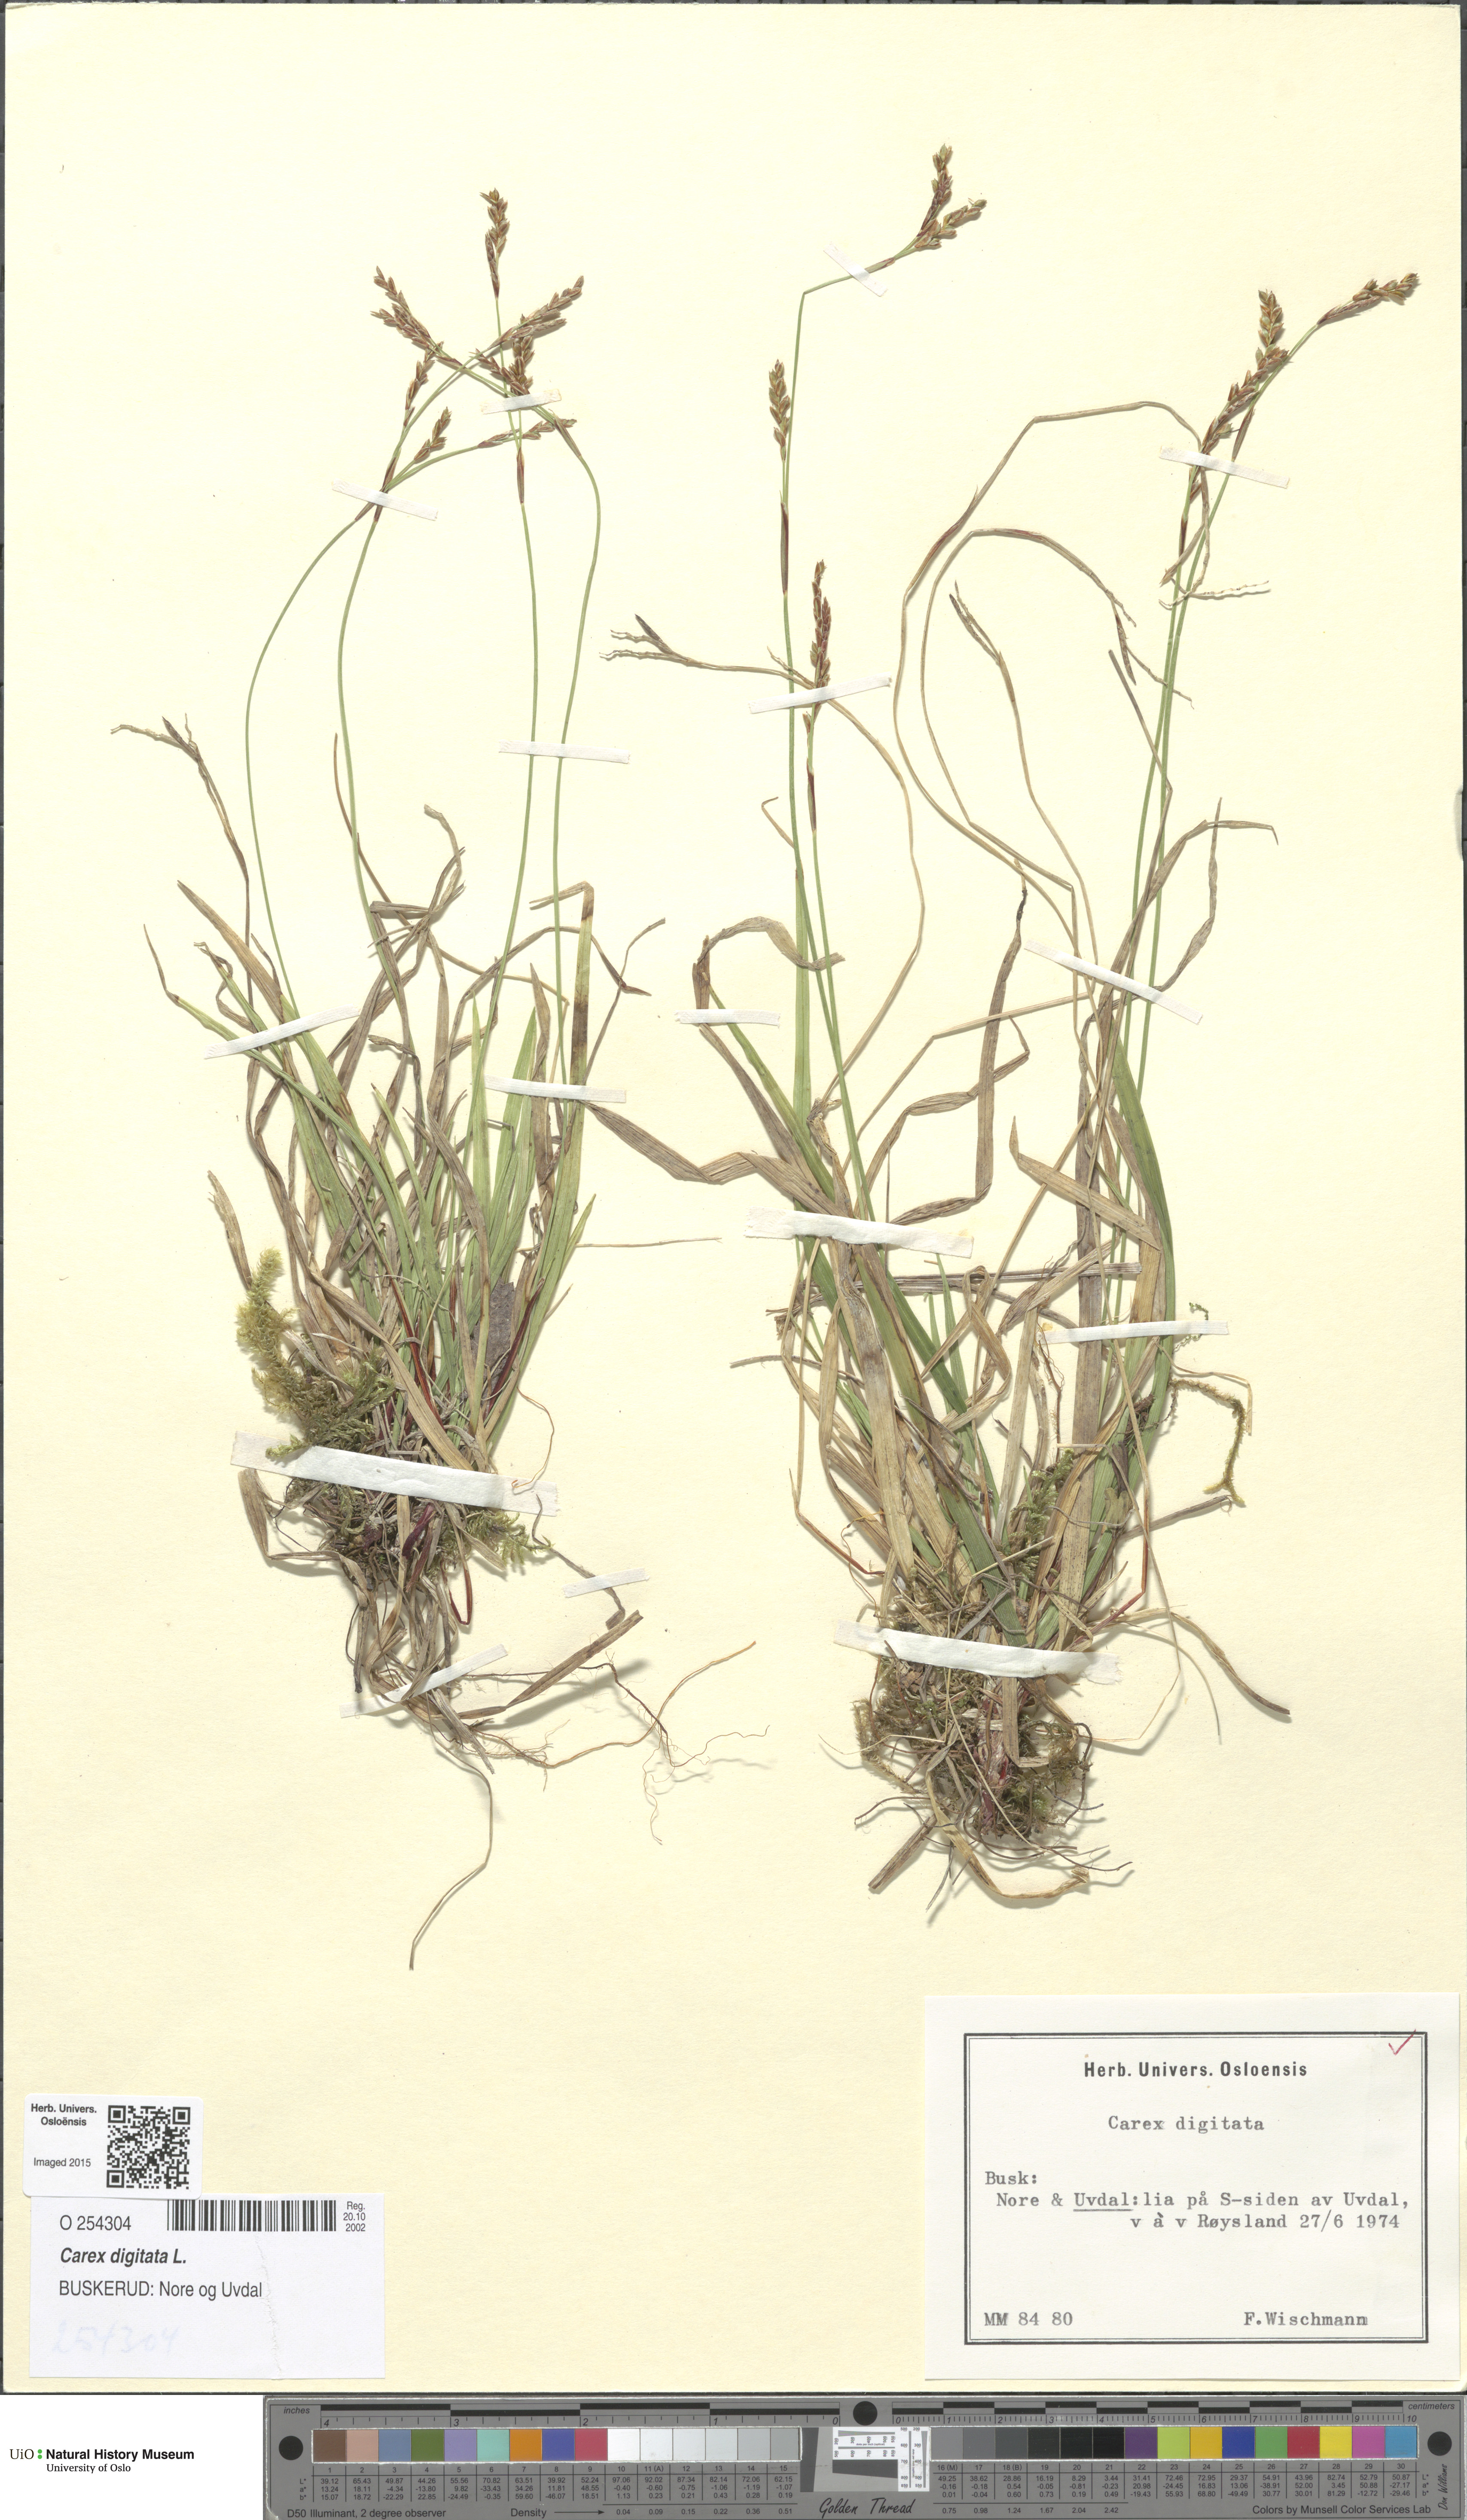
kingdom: Plantae
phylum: Tracheophyta
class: Liliopsida
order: Poales
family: Cyperaceae
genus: Carex
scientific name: Carex digitata
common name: Fingered sedge
